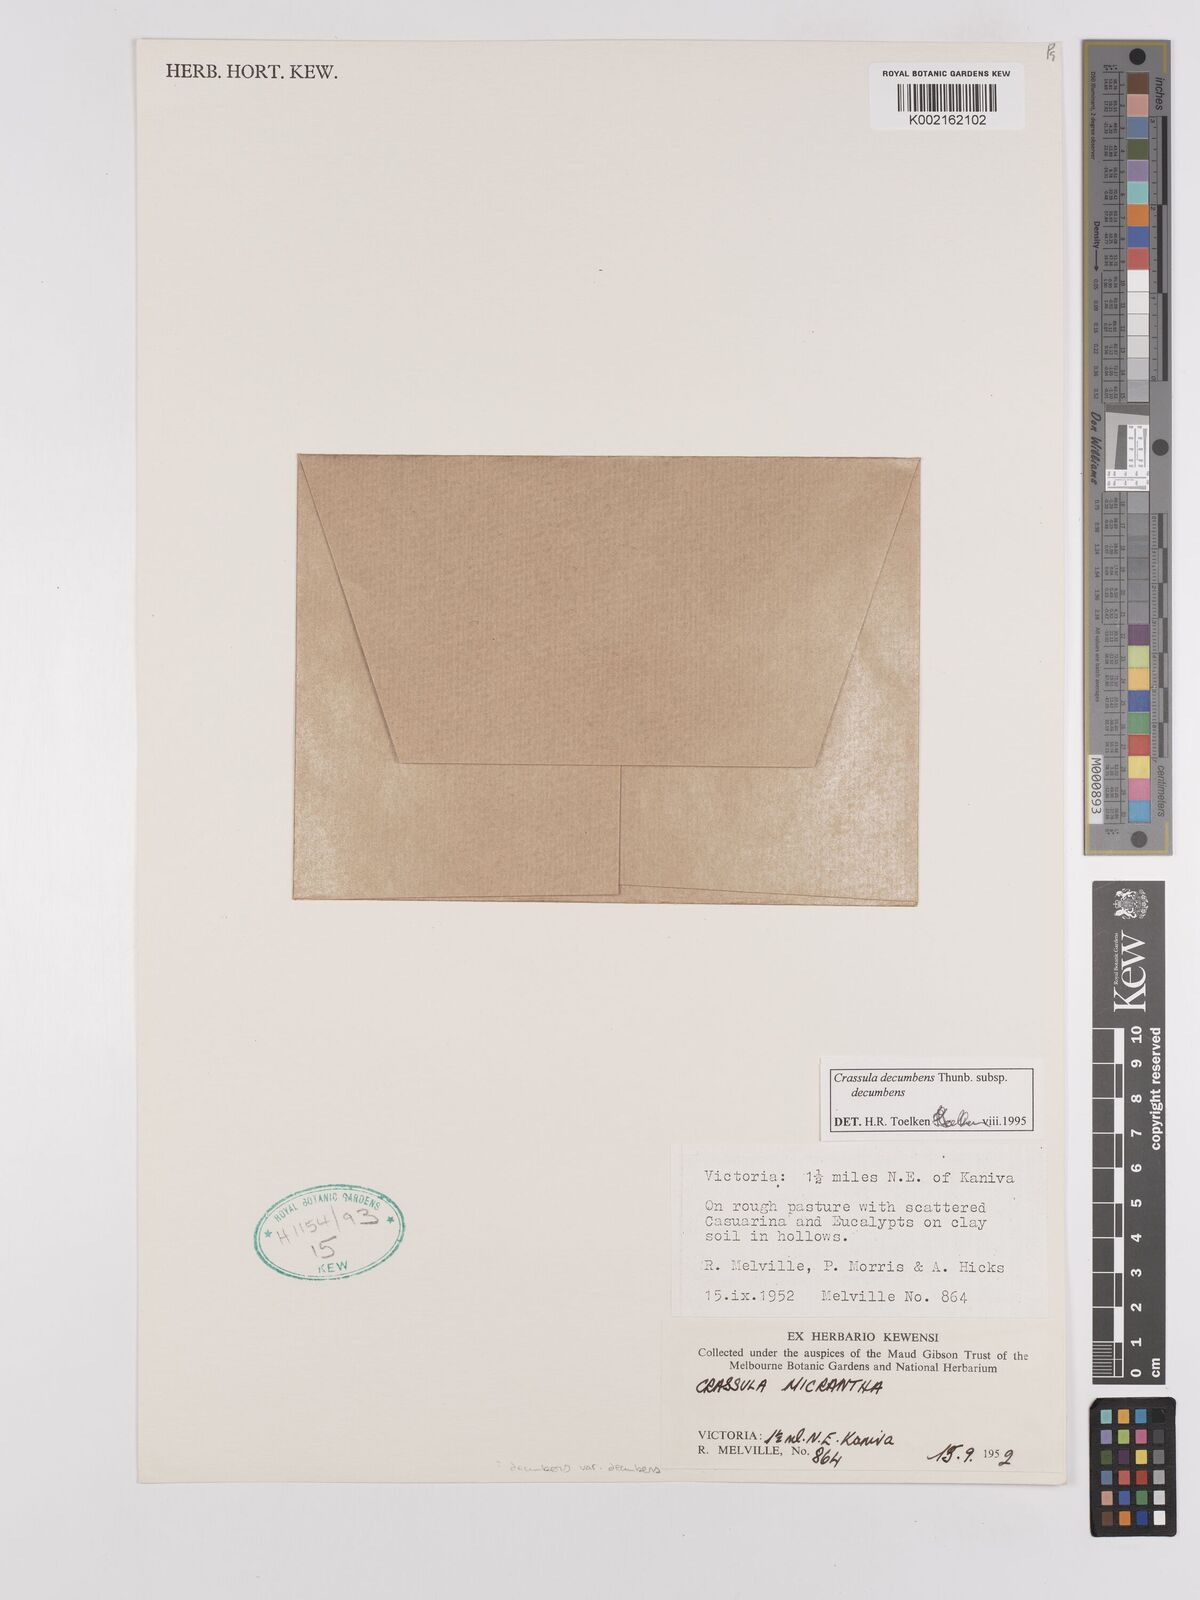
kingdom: Plantae
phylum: Tracheophyta
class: Magnoliopsida
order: Saxifragales
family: Crassulaceae
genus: Crassula
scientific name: Crassula decumbens
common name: Scilly pigmyweed
